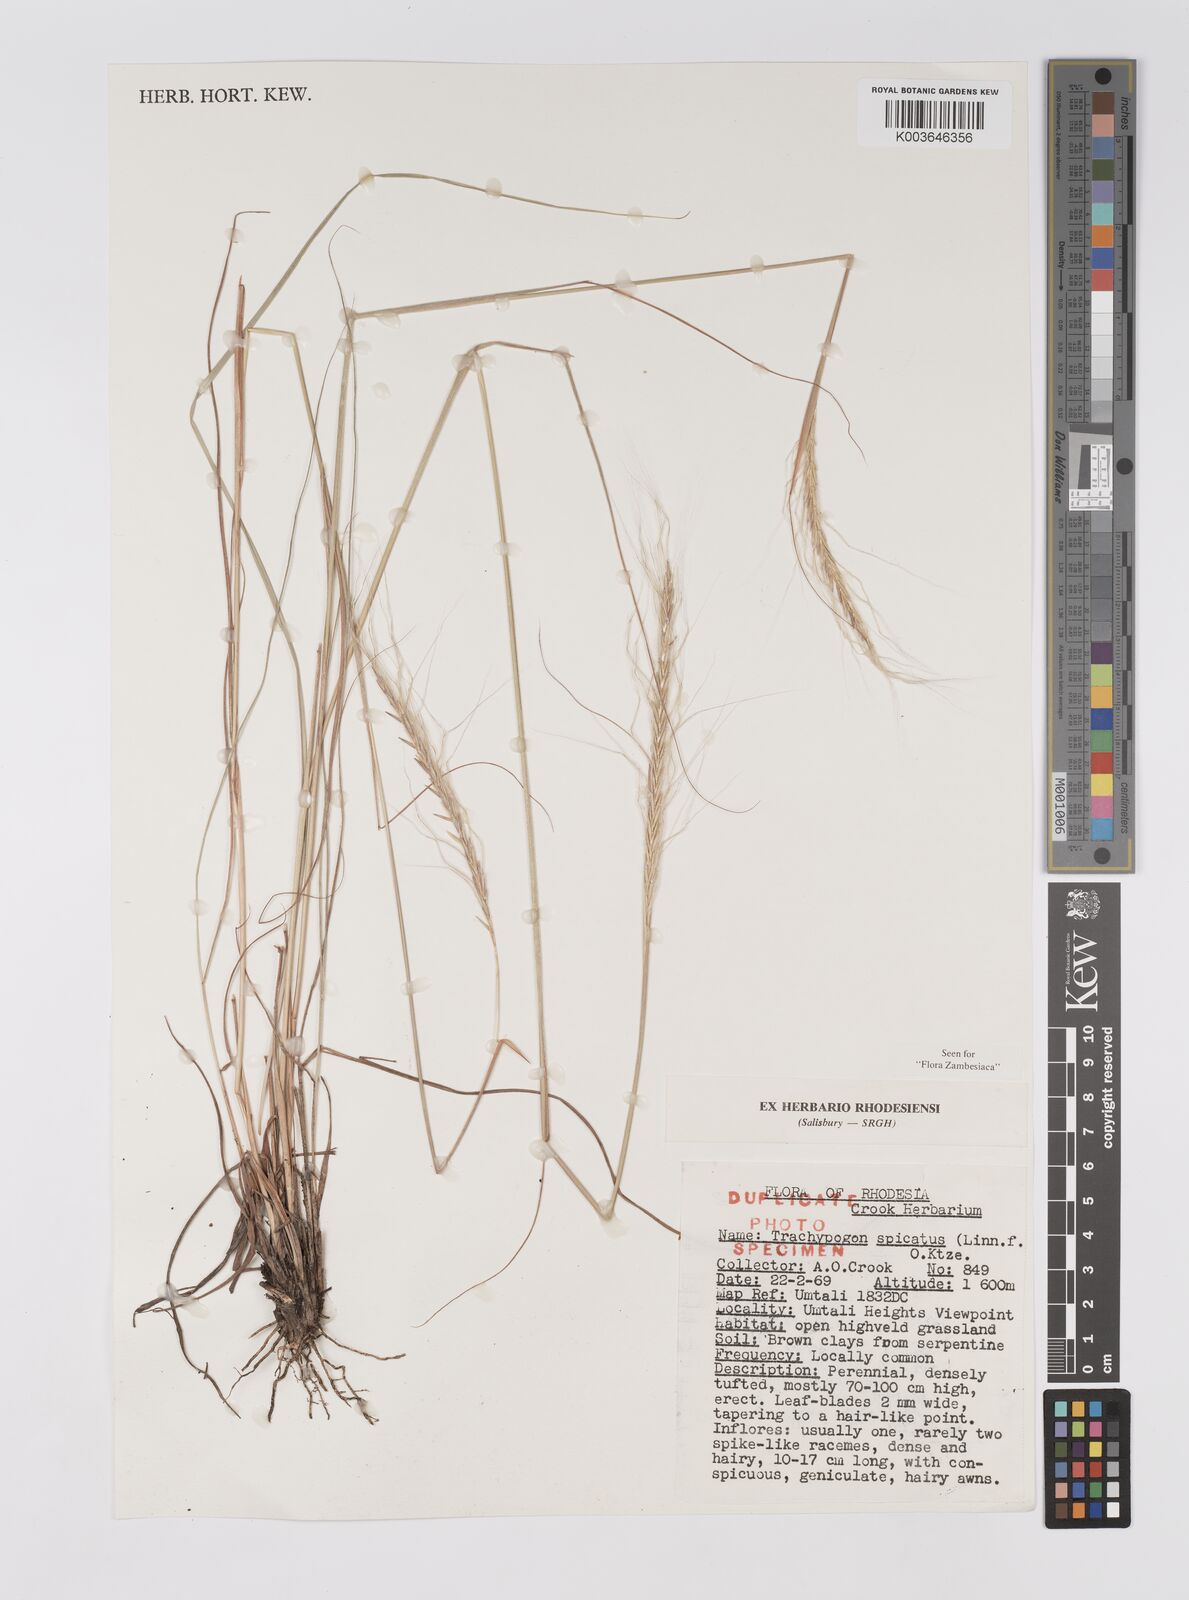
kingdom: Plantae
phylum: Tracheophyta
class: Liliopsida
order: Poales
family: Poaceae
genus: Trachypogon
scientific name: Trachypogon spicatus
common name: Crinkle-awn
